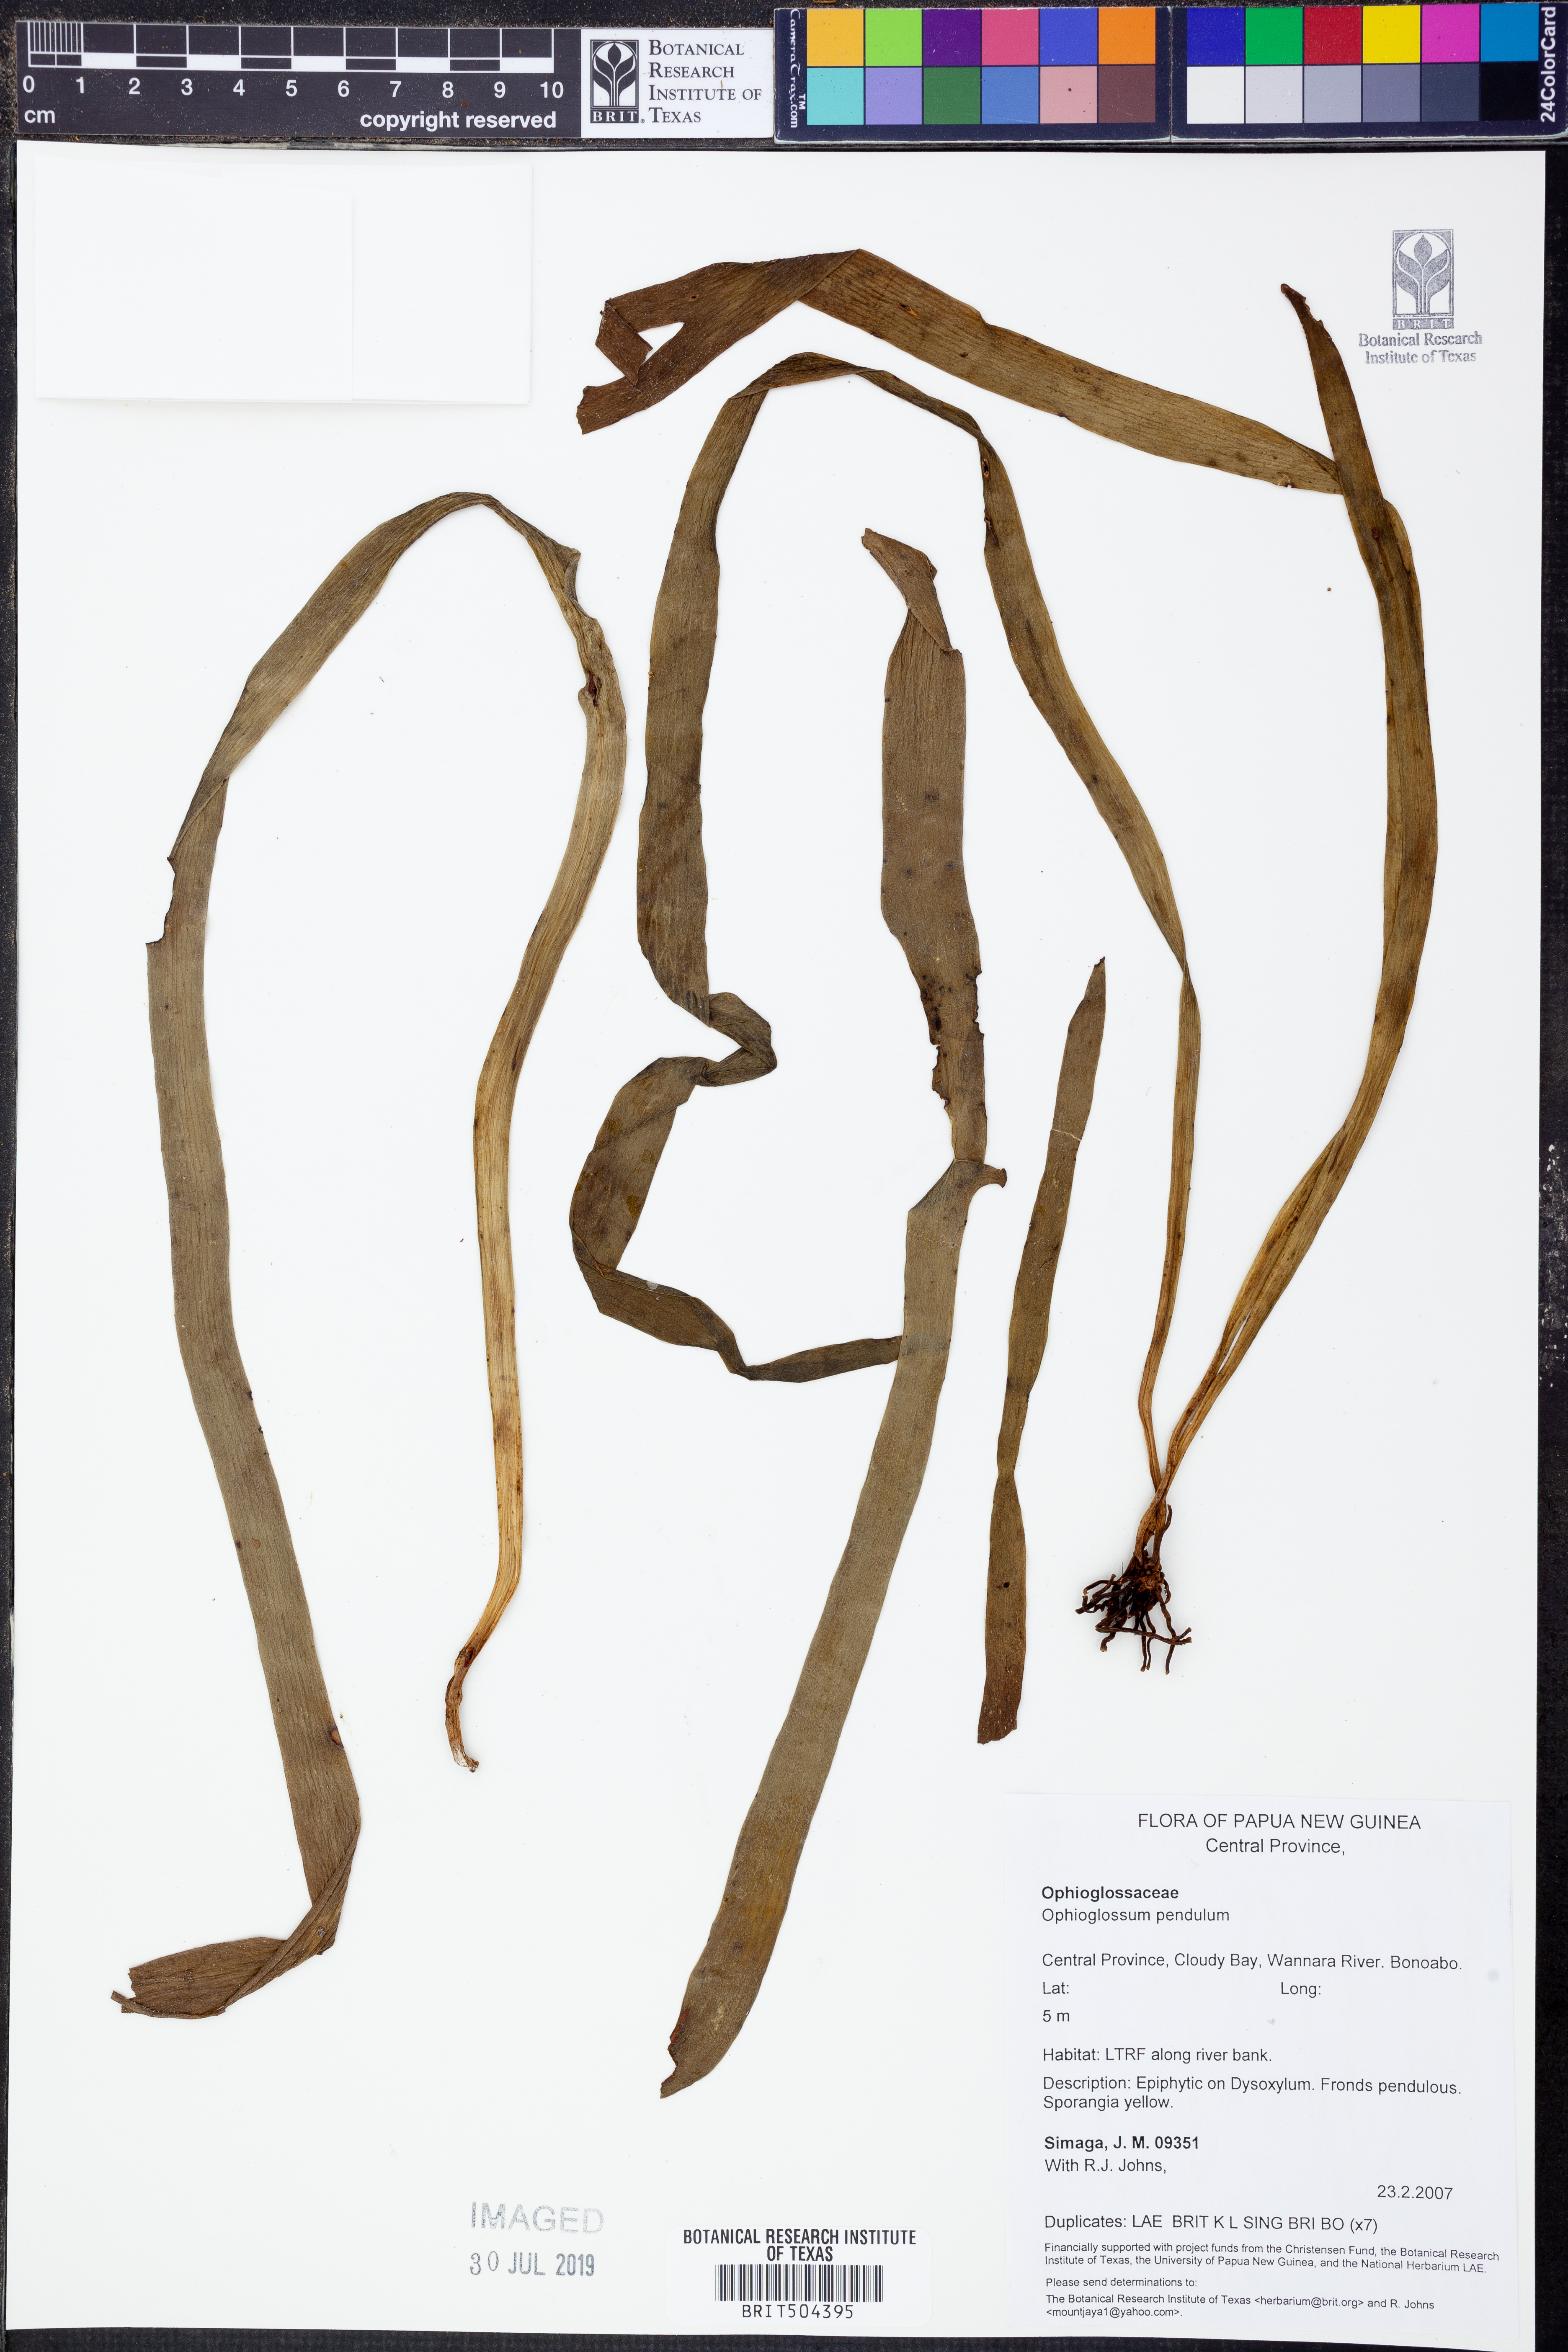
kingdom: Plantae
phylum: Tracheophyta
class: Polypodiopsida
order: Ophioglossales
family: Ophioglossaceae
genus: Ophioderma
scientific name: Ophioderma pendulum
